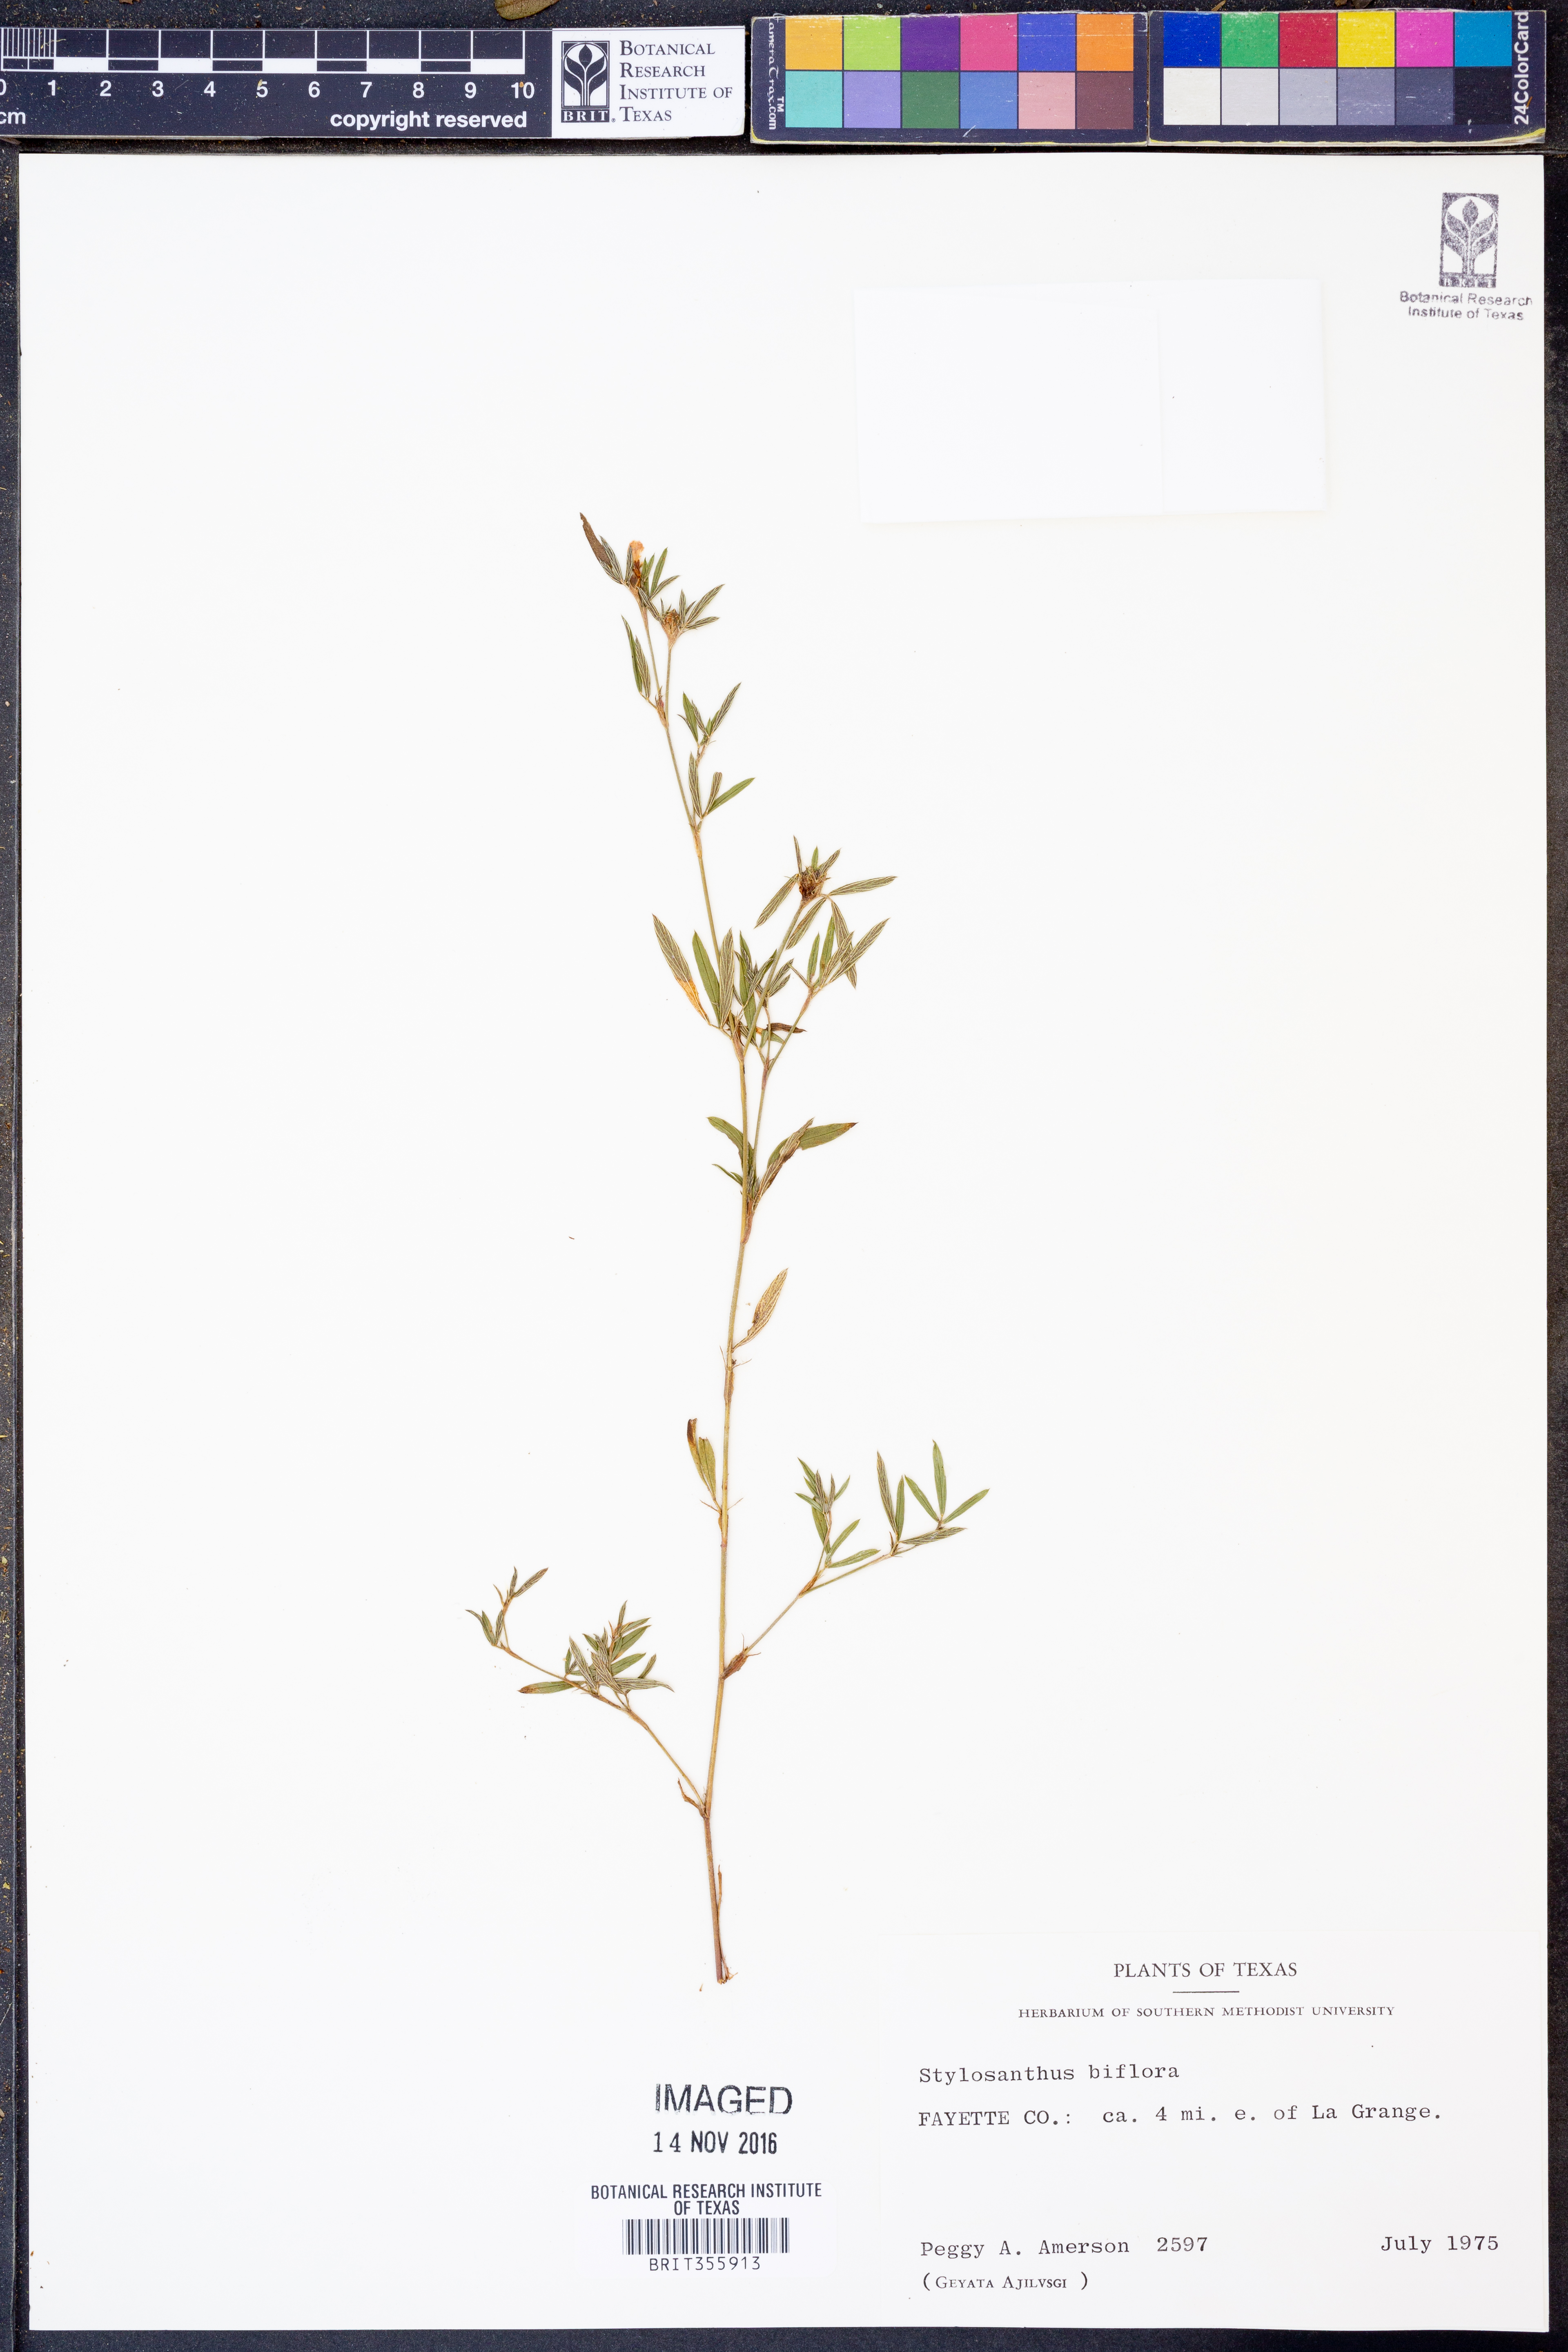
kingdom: Plantae
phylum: Tracheophyta
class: Magnoliopsida
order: Fabales
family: Fabaceae
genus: Stylosanthes
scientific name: Stylosanthes biflora
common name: Two-flower pencil-flower
